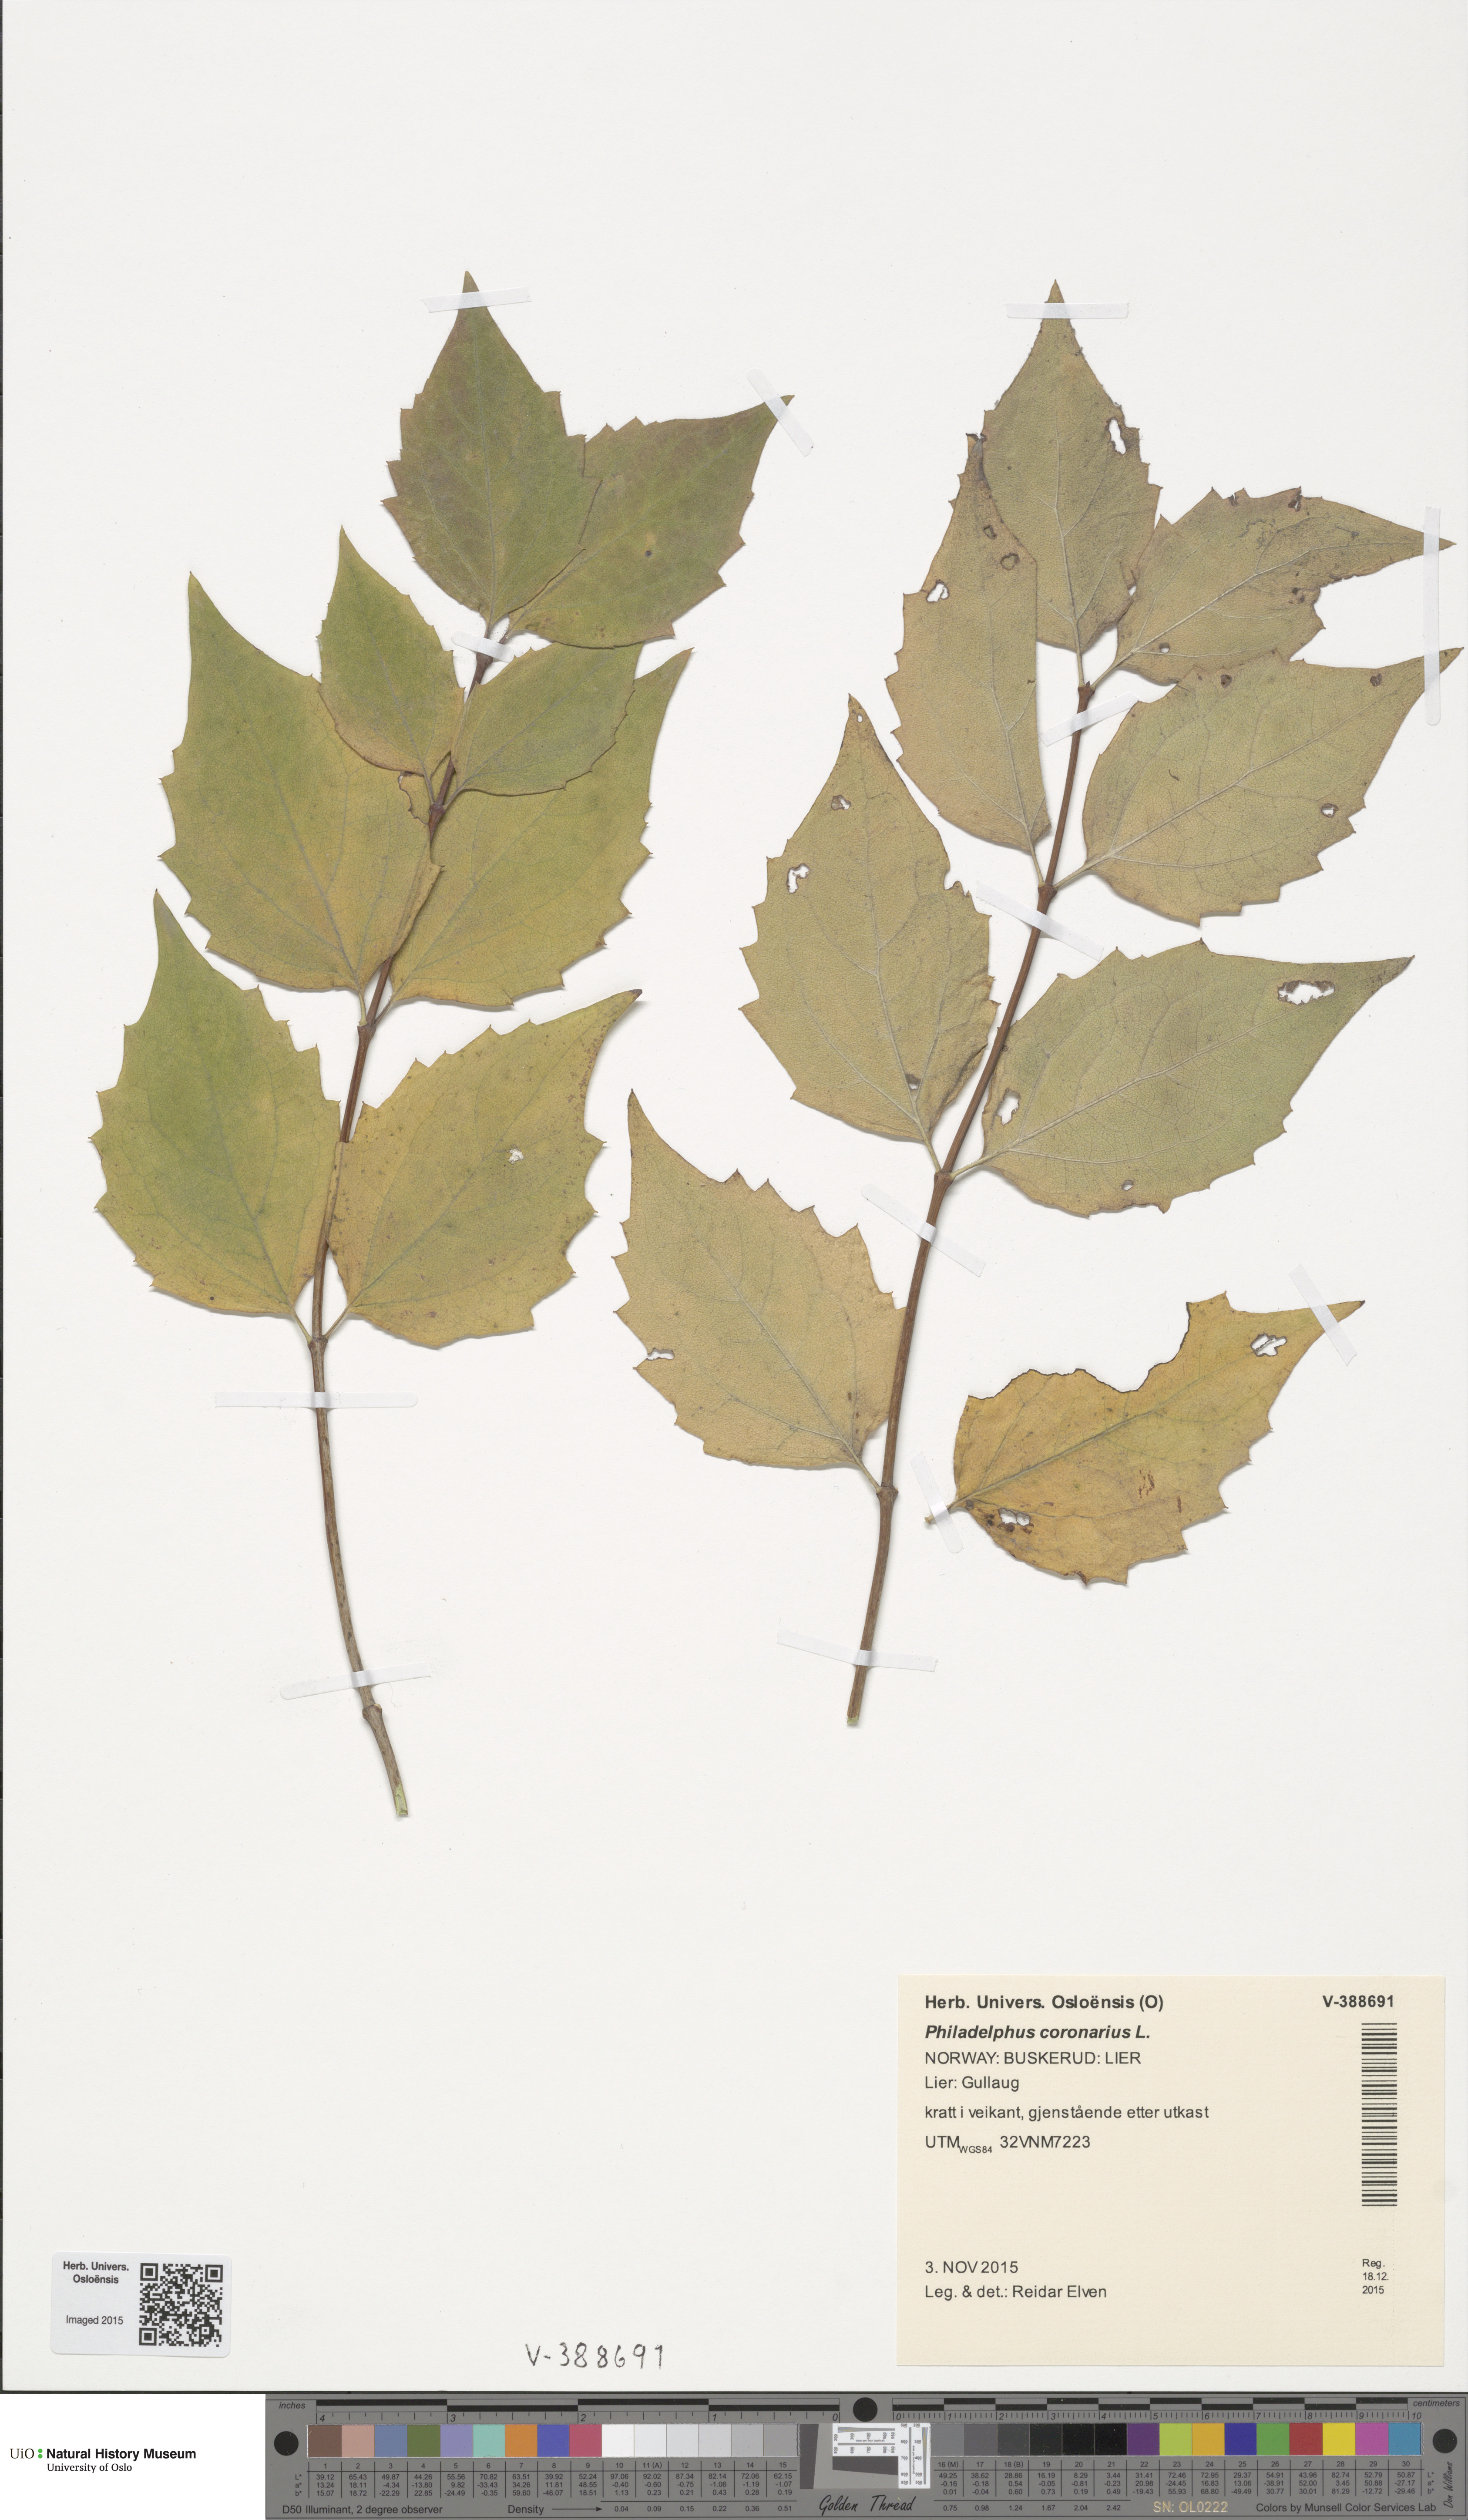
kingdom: Plantae
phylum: Tracheophyta
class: Magnoliopsida
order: Cornales
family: Hydrangeaceae
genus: Philadelphus
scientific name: Philadelphus coronarius
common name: Mock orange
